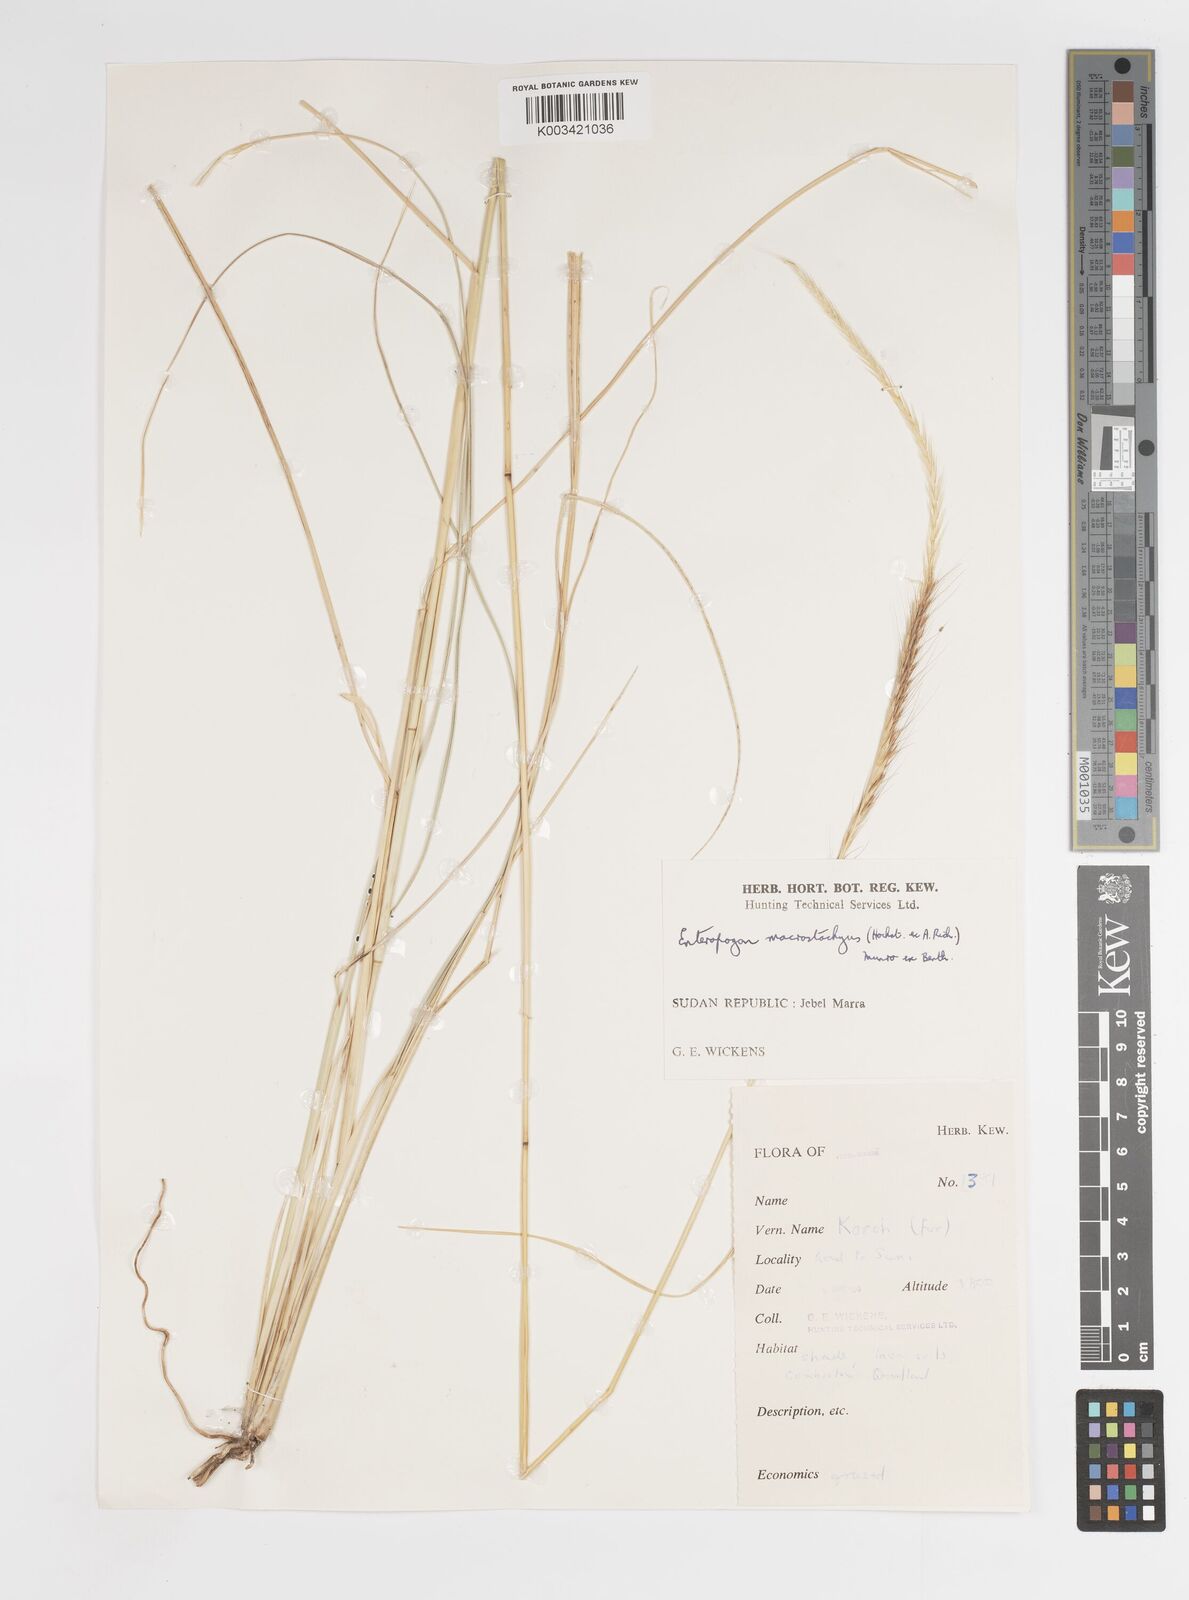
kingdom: Plantae
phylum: Tracheophyta
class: Liliopsida
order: Poales
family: Poaceae
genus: Enteropogon
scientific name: Enteropogon macrostachyus
